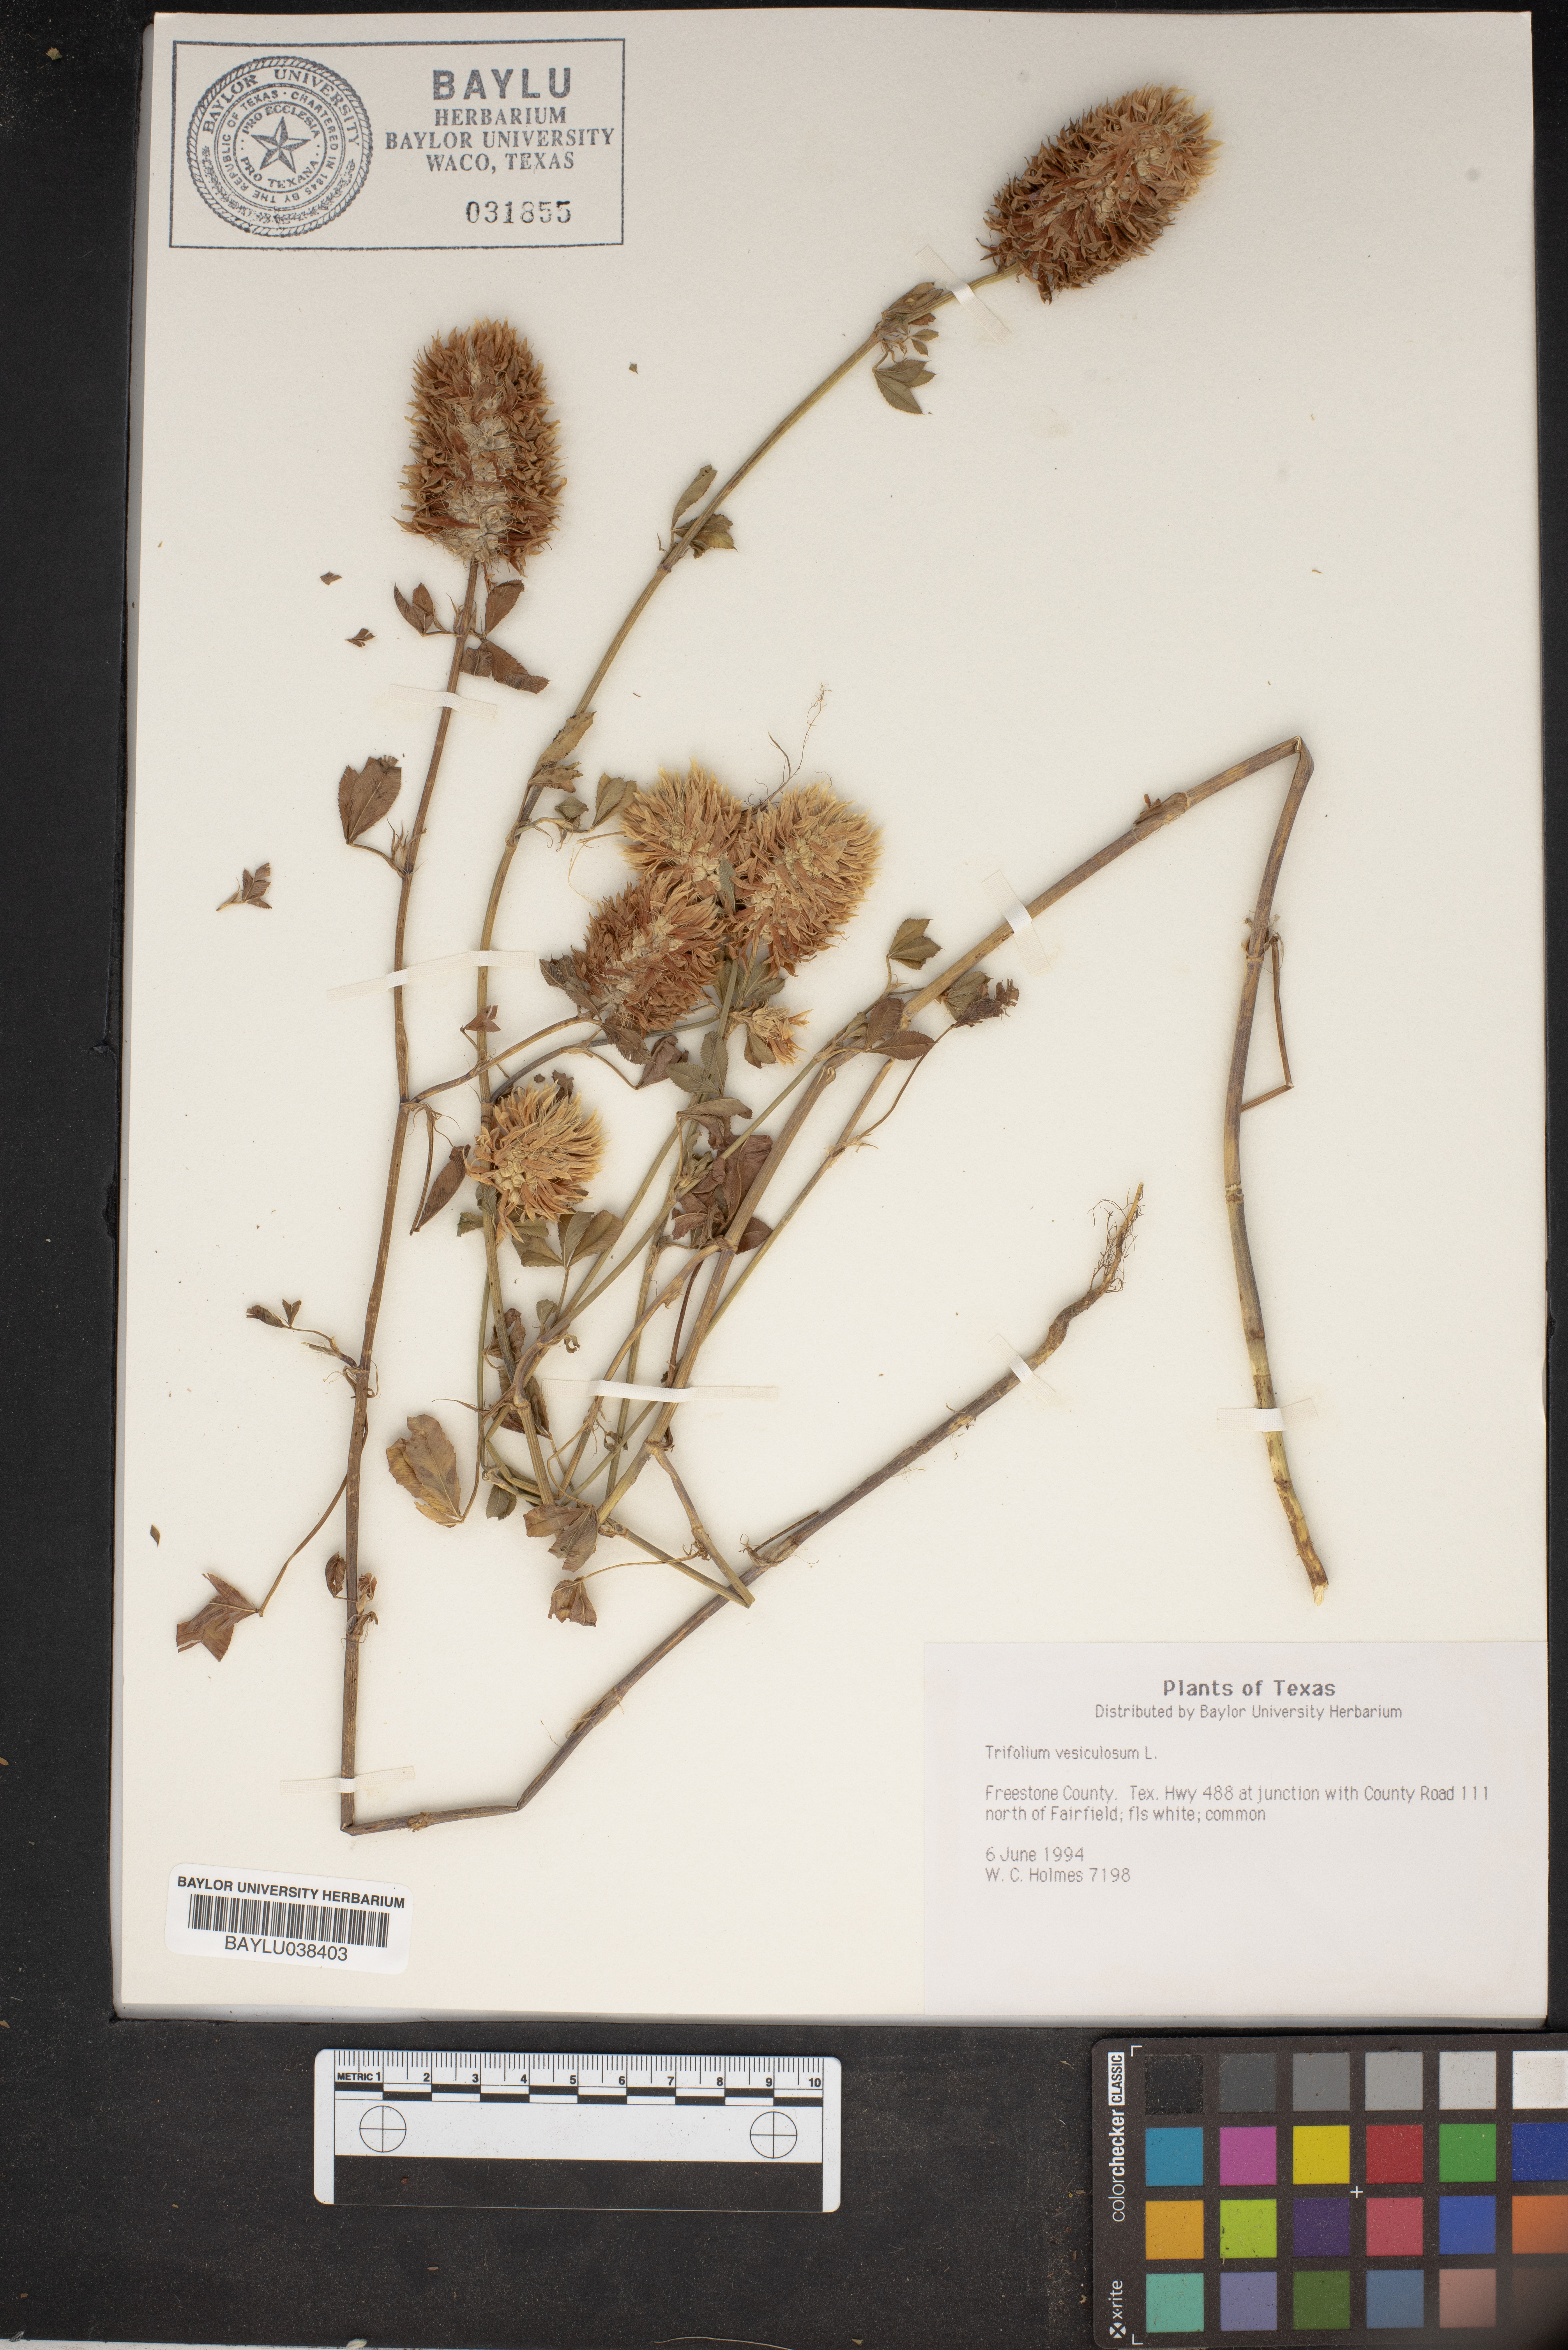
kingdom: Plantae
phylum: Tracheophyta
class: Magnoliopsida
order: Fabales
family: Fabaceae
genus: Trifolium
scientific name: Trifolium vesiculosum
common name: Arrowleaf clover
